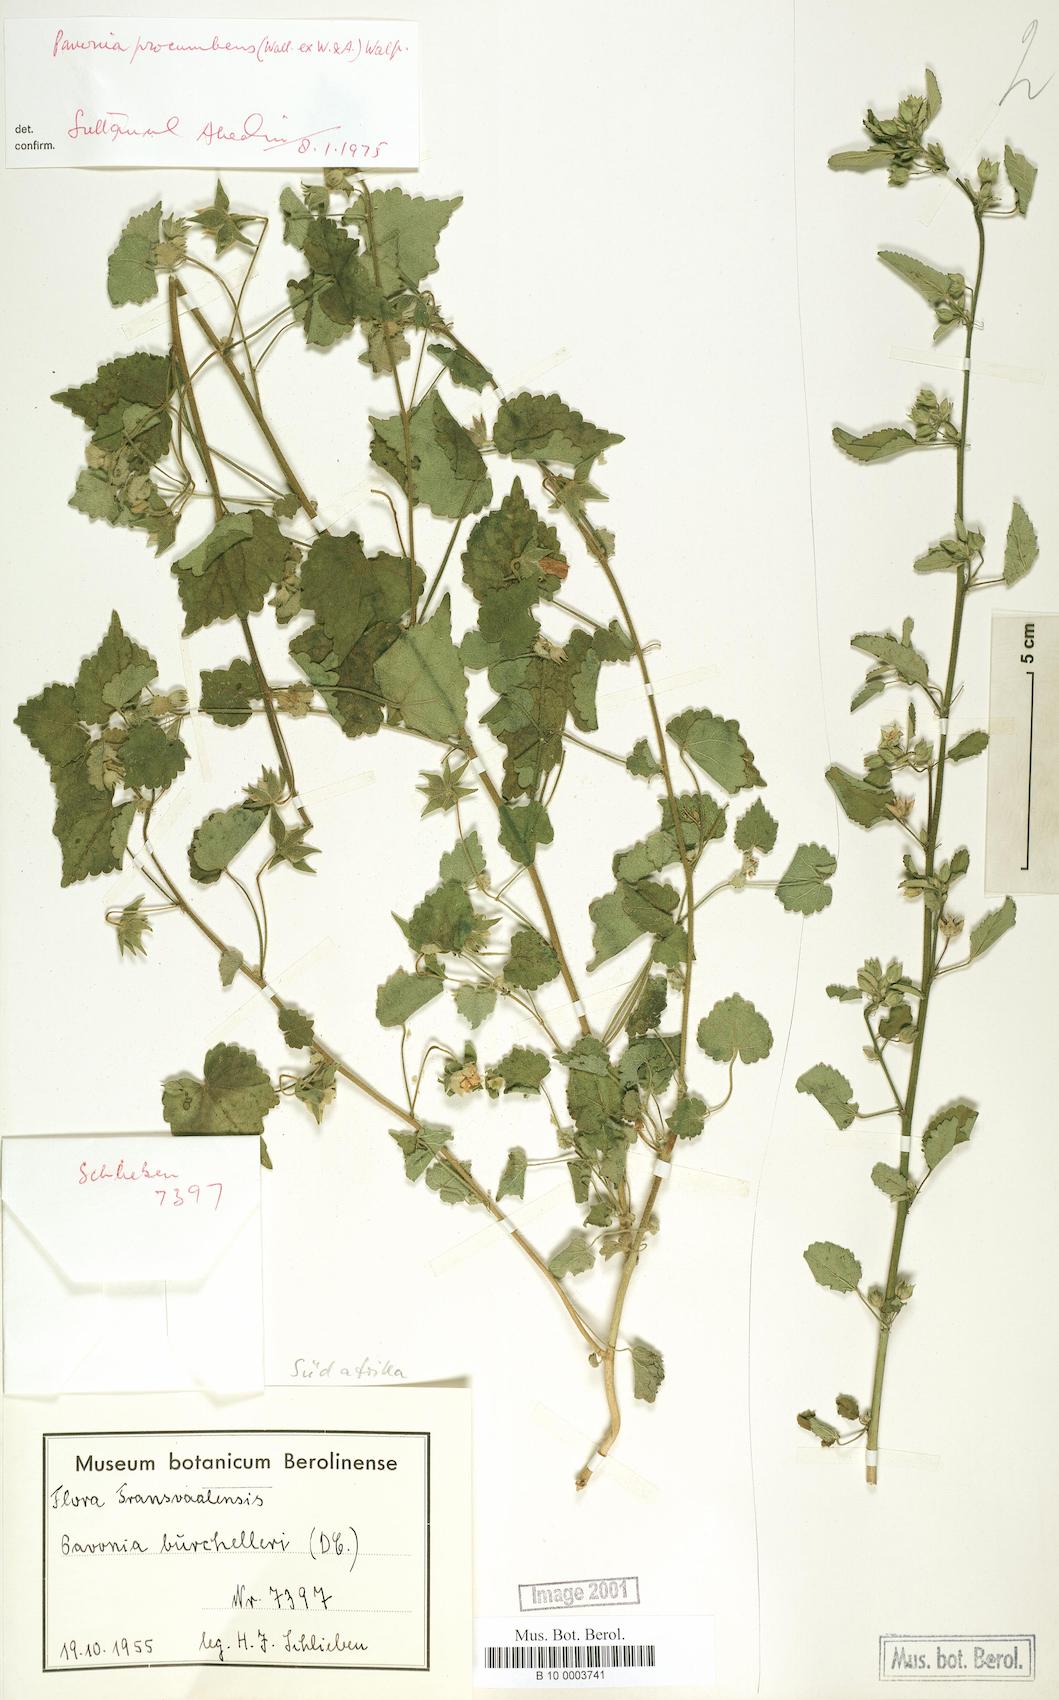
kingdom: Plantae
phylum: Tracheophyta
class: Magnoliopsida
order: Malvales
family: Malvaceae
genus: Pavonia
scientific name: Pavonia procumbens
